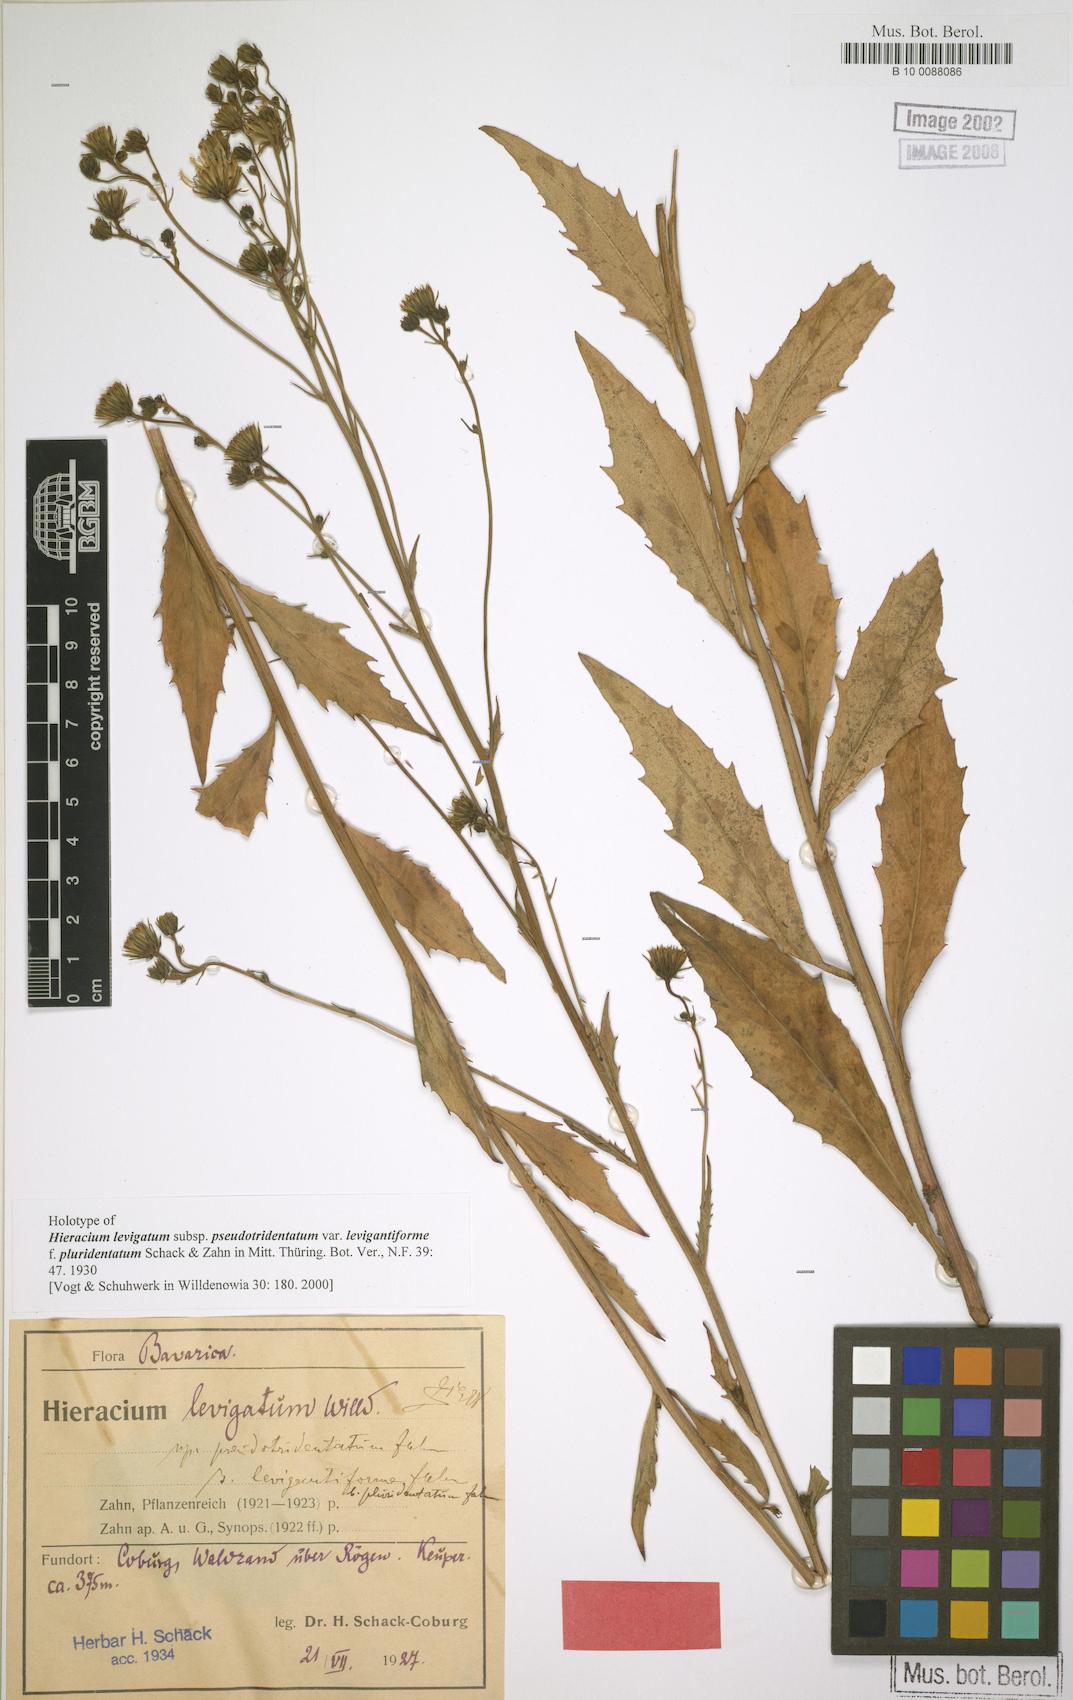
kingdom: Plantae
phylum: Tracheophyta
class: Magnoliopsida
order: Asterales
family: Asteraceae
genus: Hieracium
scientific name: Hieracium laevigatum
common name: Smooth hawkweed
